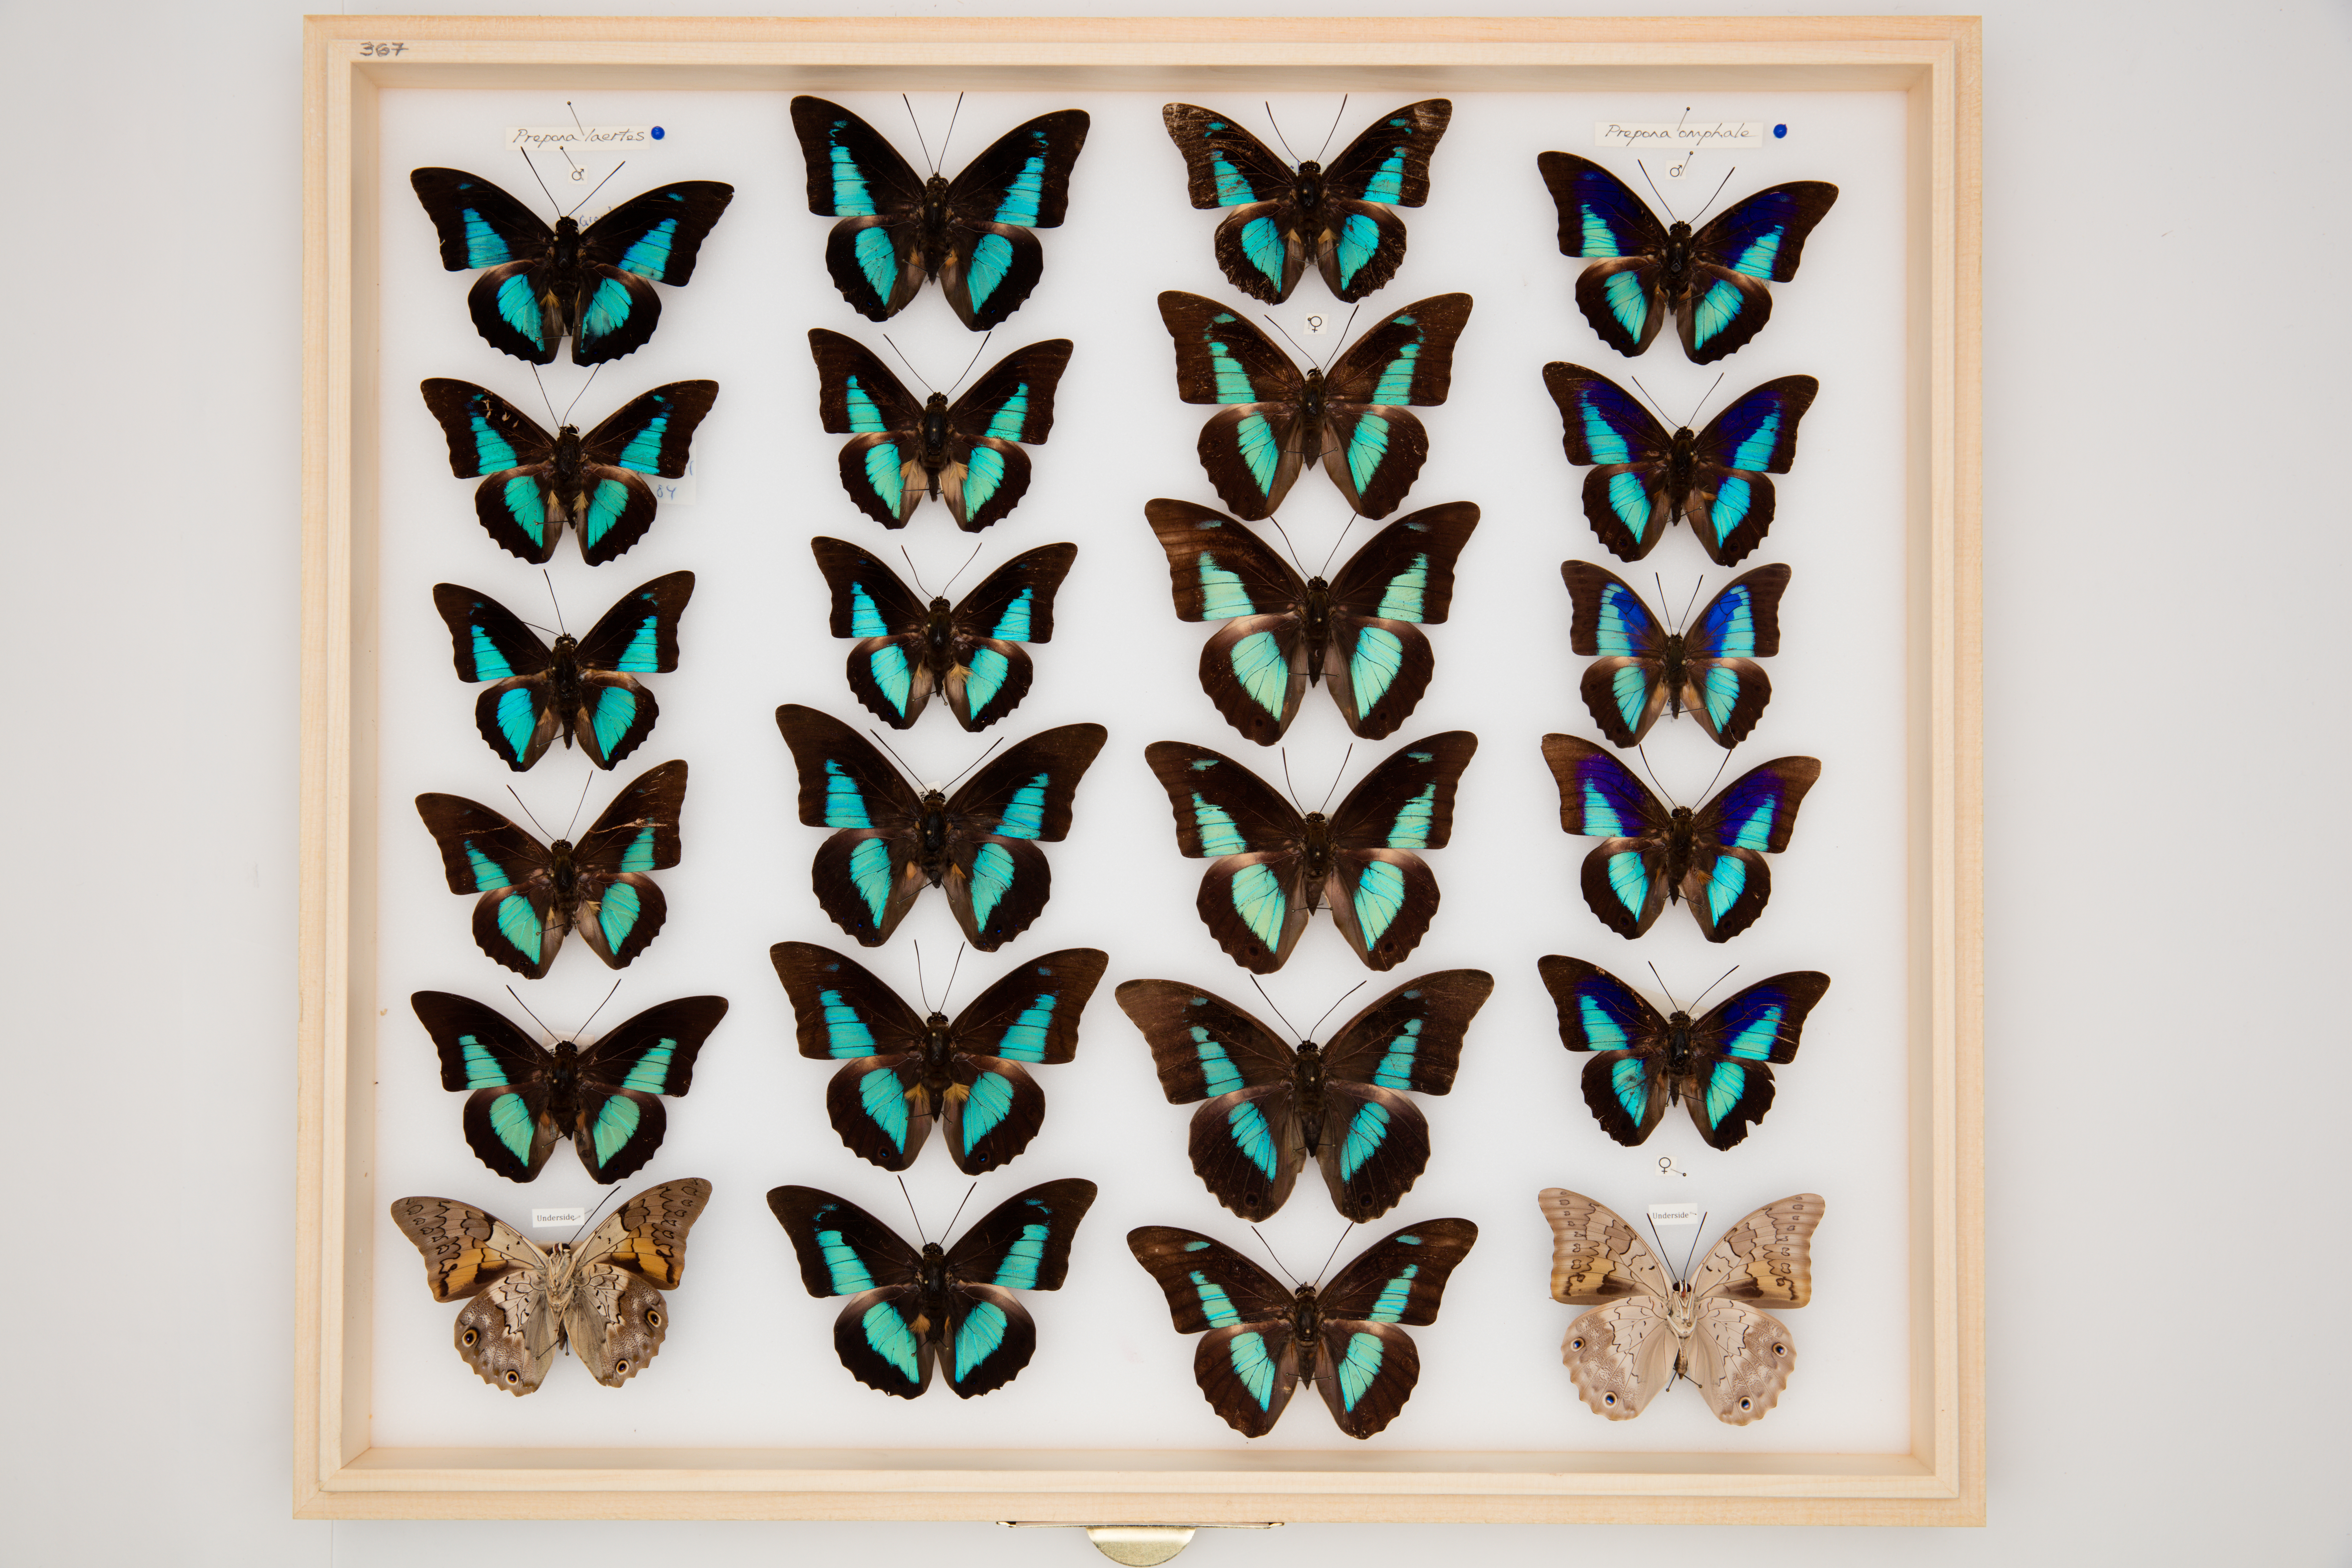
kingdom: Animalia
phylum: Arthropoda
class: Insecta
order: Lepidoptera
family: Nymphalidae
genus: Prepona
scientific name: Prepona omphale
